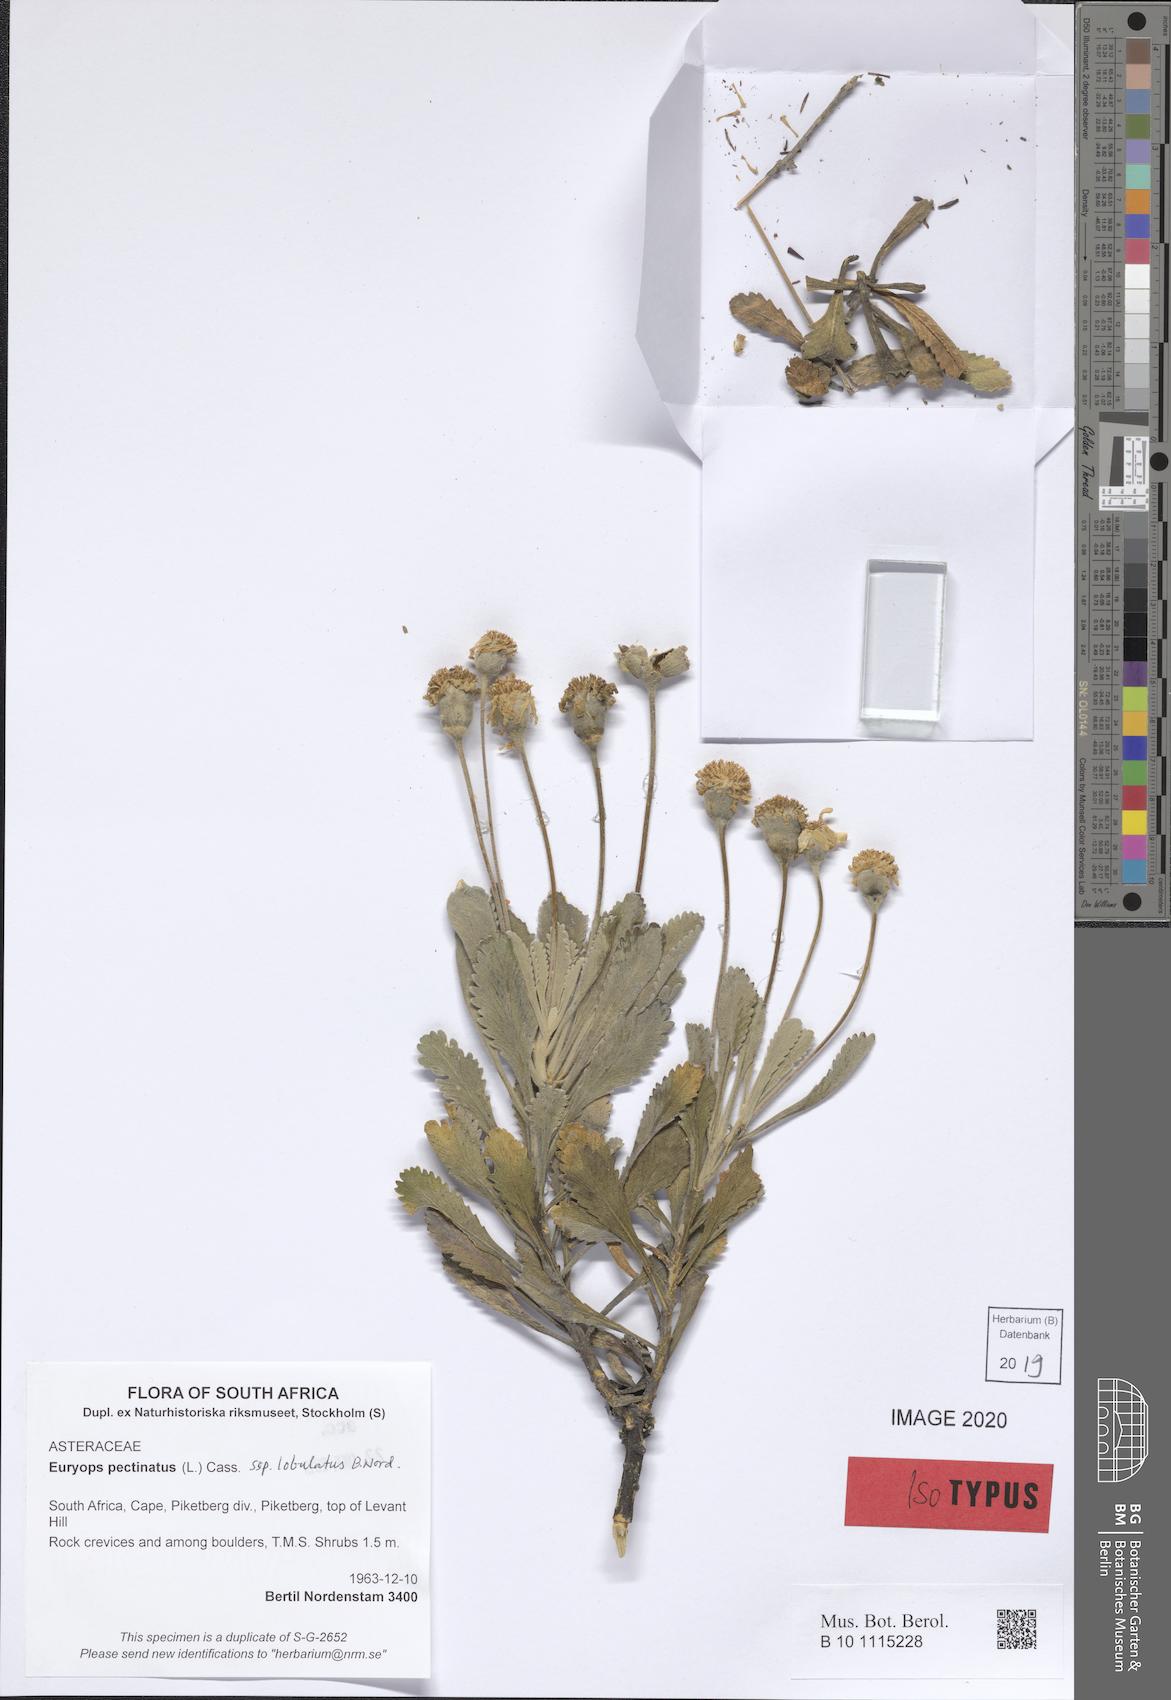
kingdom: Plantae
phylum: Tracheophyta
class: Magnoliopsida
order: Asterales
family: Asteraceae
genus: Euryops
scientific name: Euryops pectinatus
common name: Gray-leaf euryops
